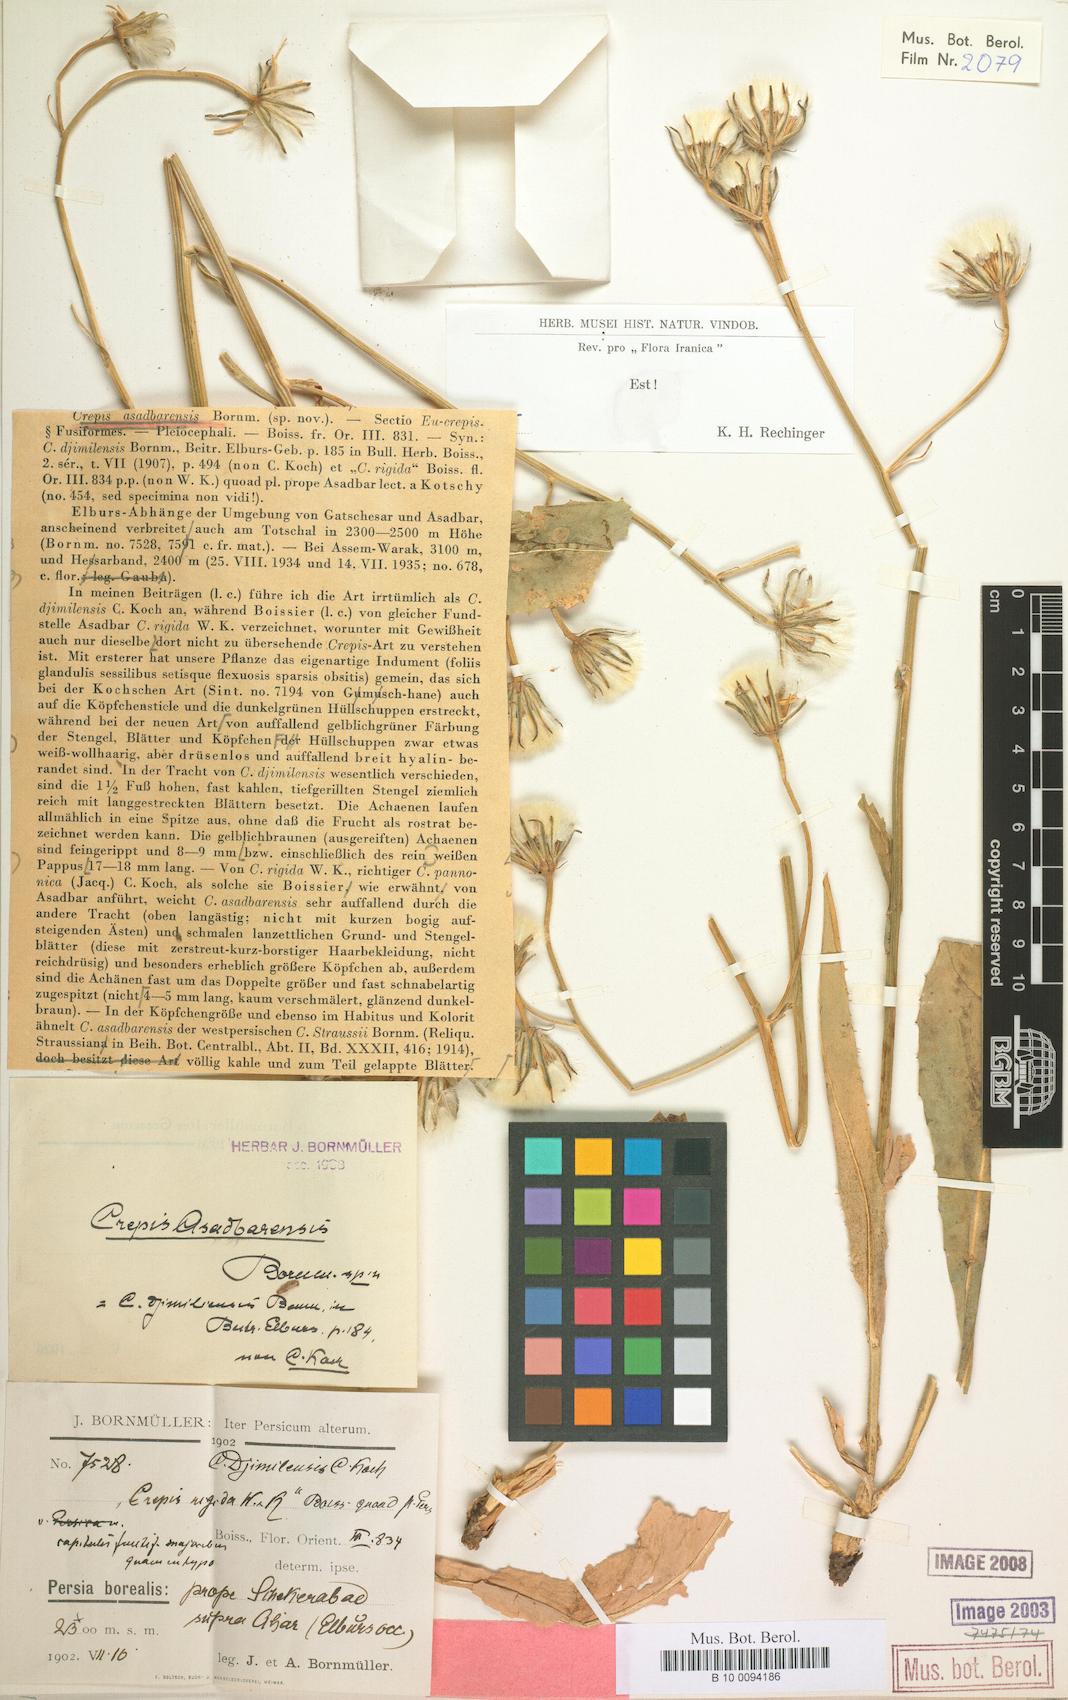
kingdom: Plantae
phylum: Tracheophyta
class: Magnoliopsida
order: Asterales
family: Asteraceae
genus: Crepis
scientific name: Crepis asadbarensis
